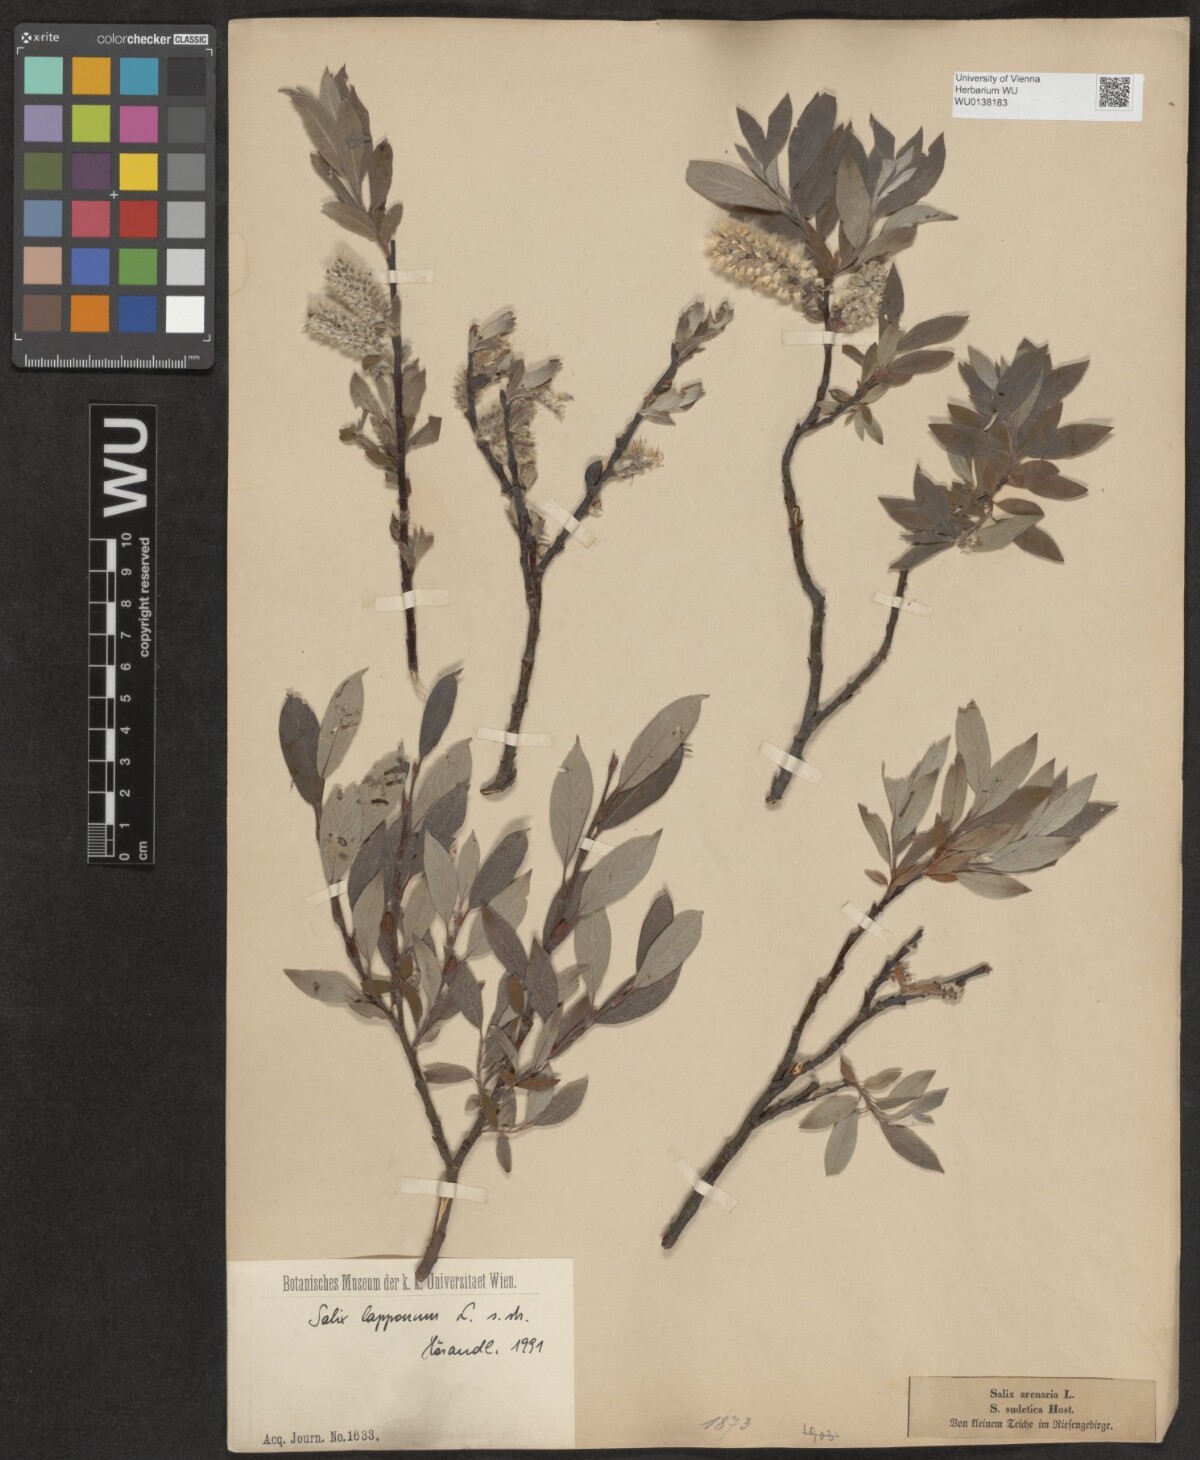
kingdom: Plantae
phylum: Tracheophyta
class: Magnoliopsida
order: Malpighiales
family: Salicaceae
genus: Salix
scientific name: Salix lapponum
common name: Downy willow
